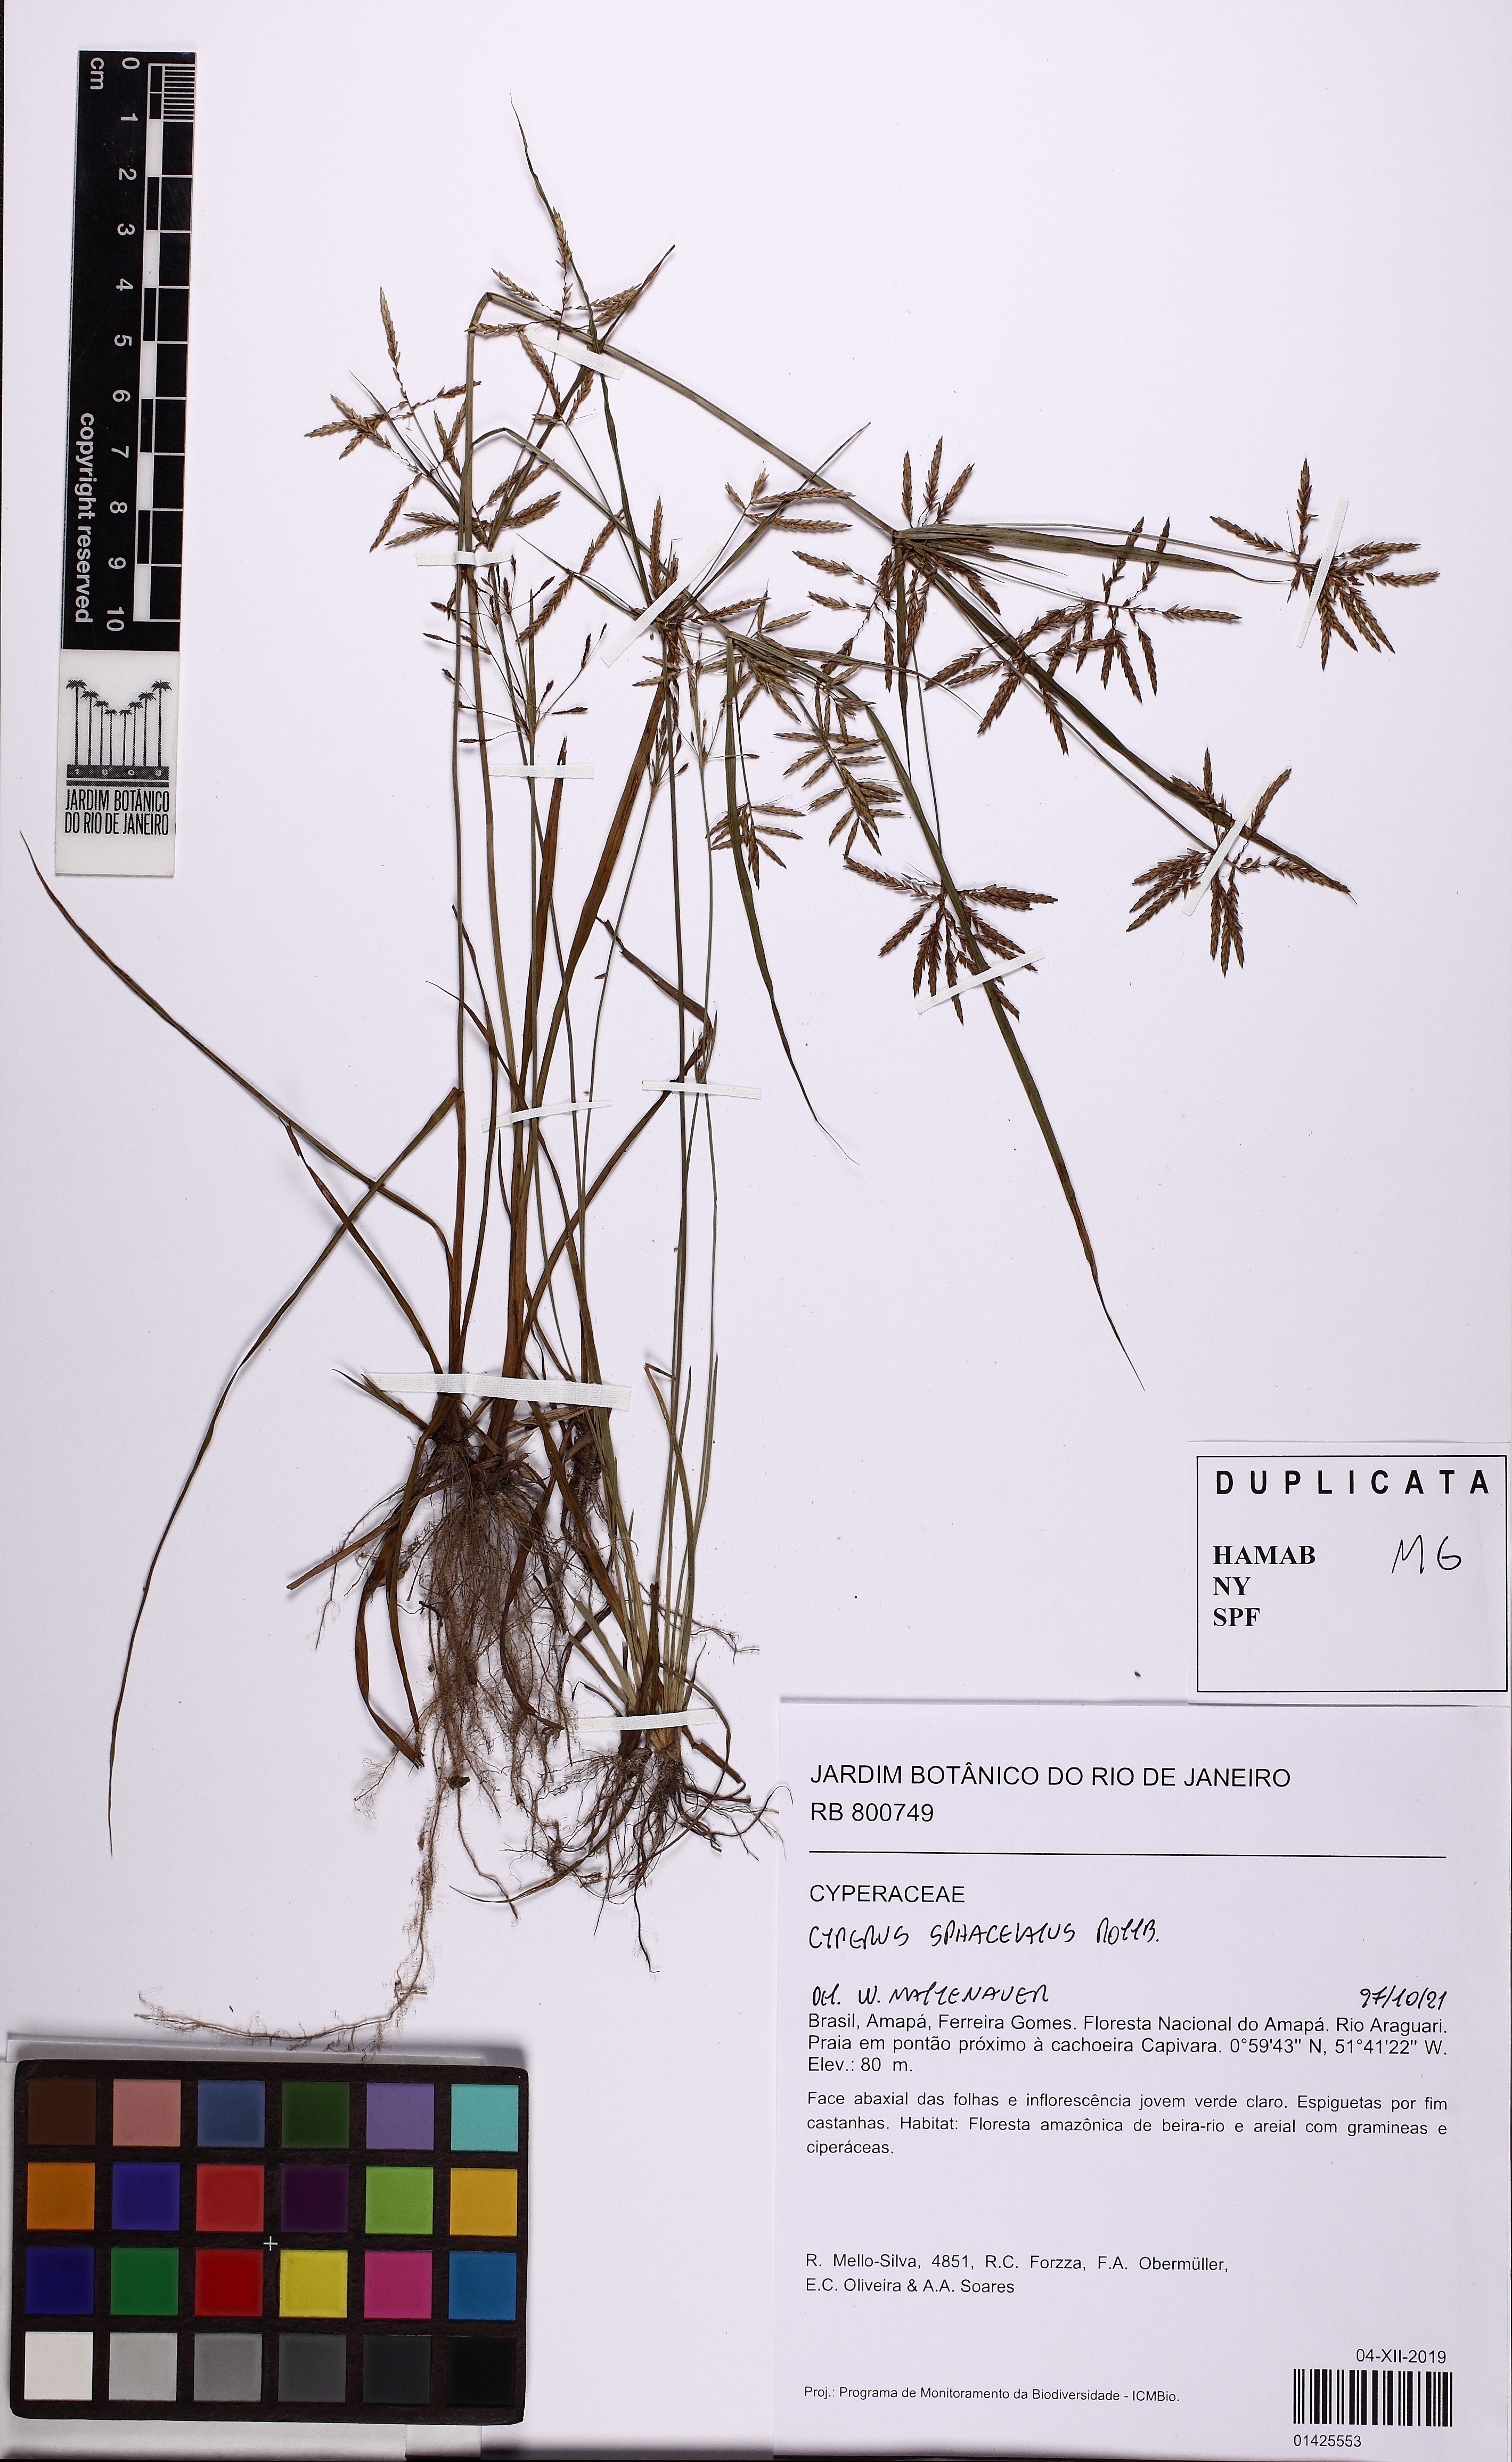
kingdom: Plantae
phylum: Tracheophyta
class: Liliopsida
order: Poales
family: Cyperaceae
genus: Cyperus
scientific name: Cyperus sphacelatus
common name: Roadside flatsedge
